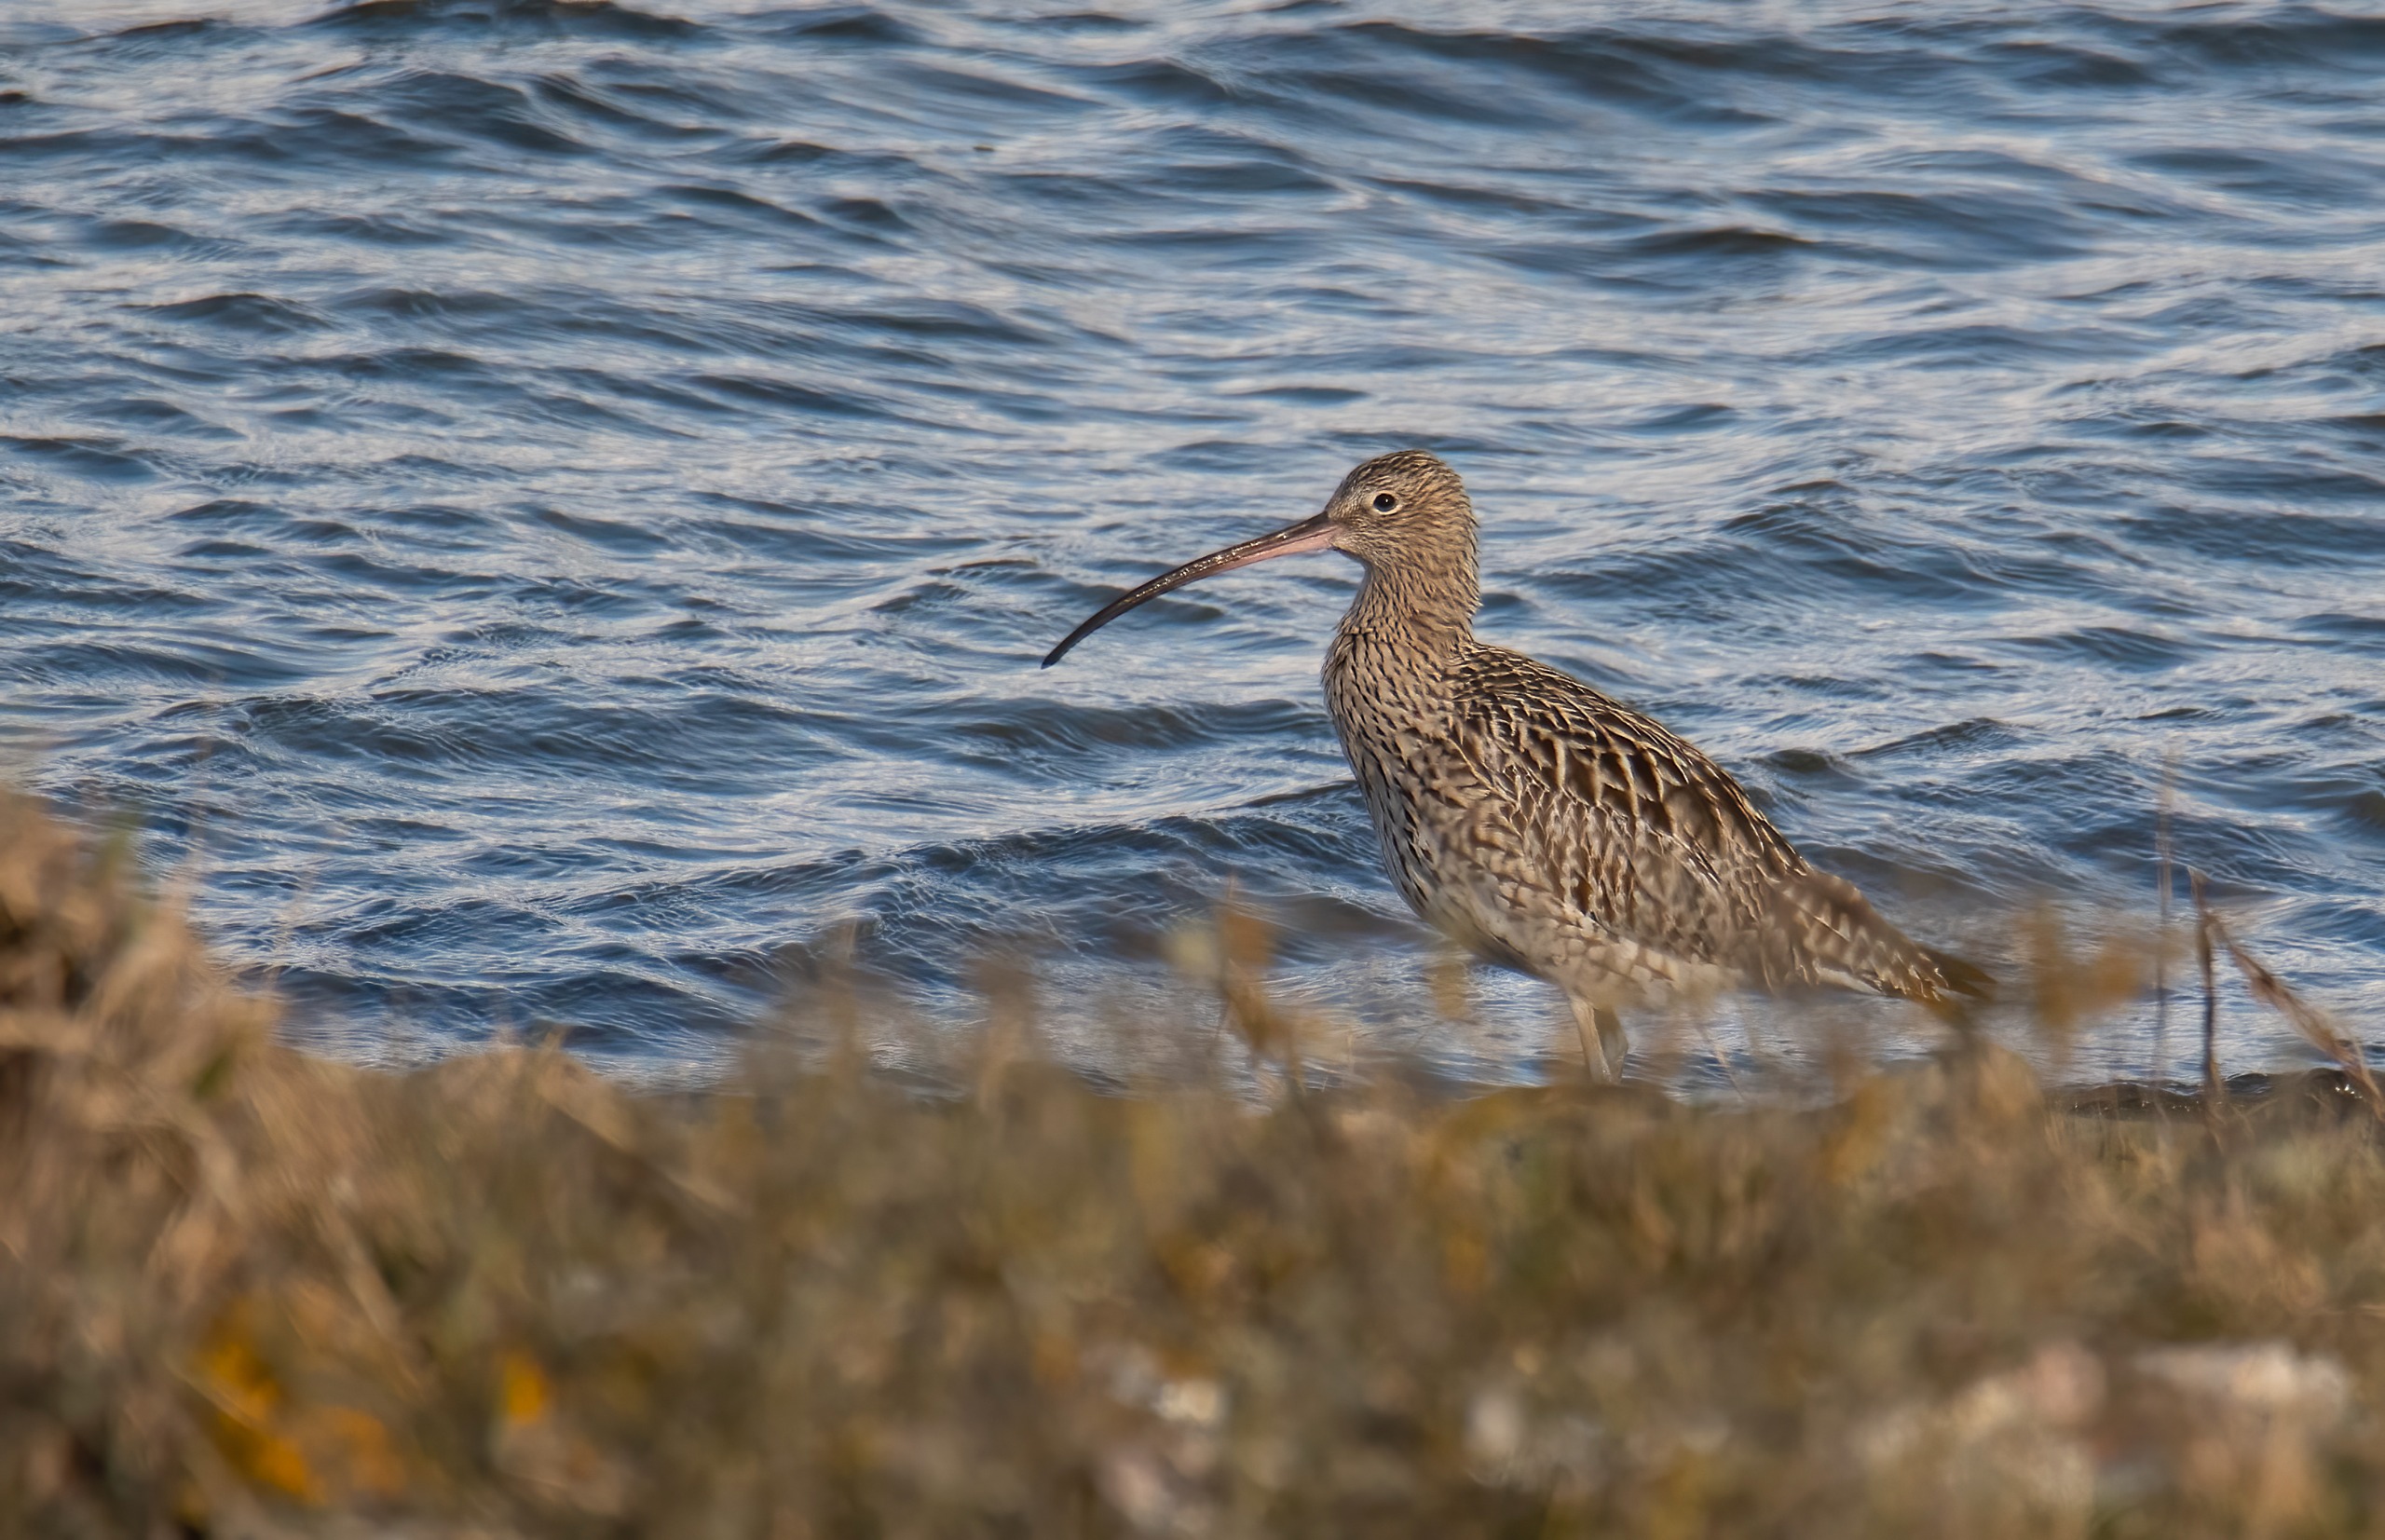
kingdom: Animalia
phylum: Chordata
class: Aves
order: Charadriiformes
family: Scolopacidae
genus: Numenius
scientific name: Numenius arquata
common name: Storspove
